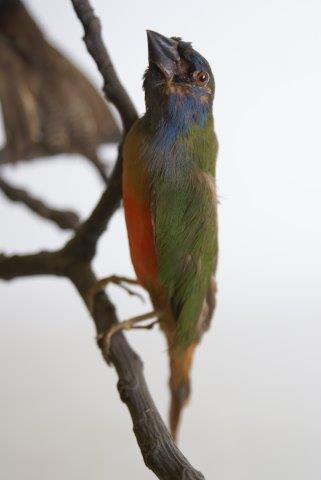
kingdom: Animalia
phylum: Chordata
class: Aves
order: Passeriformes
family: Estrildidae
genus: Erythrura
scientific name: Erythrura prasina
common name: Pin-tailed parrotfinch
